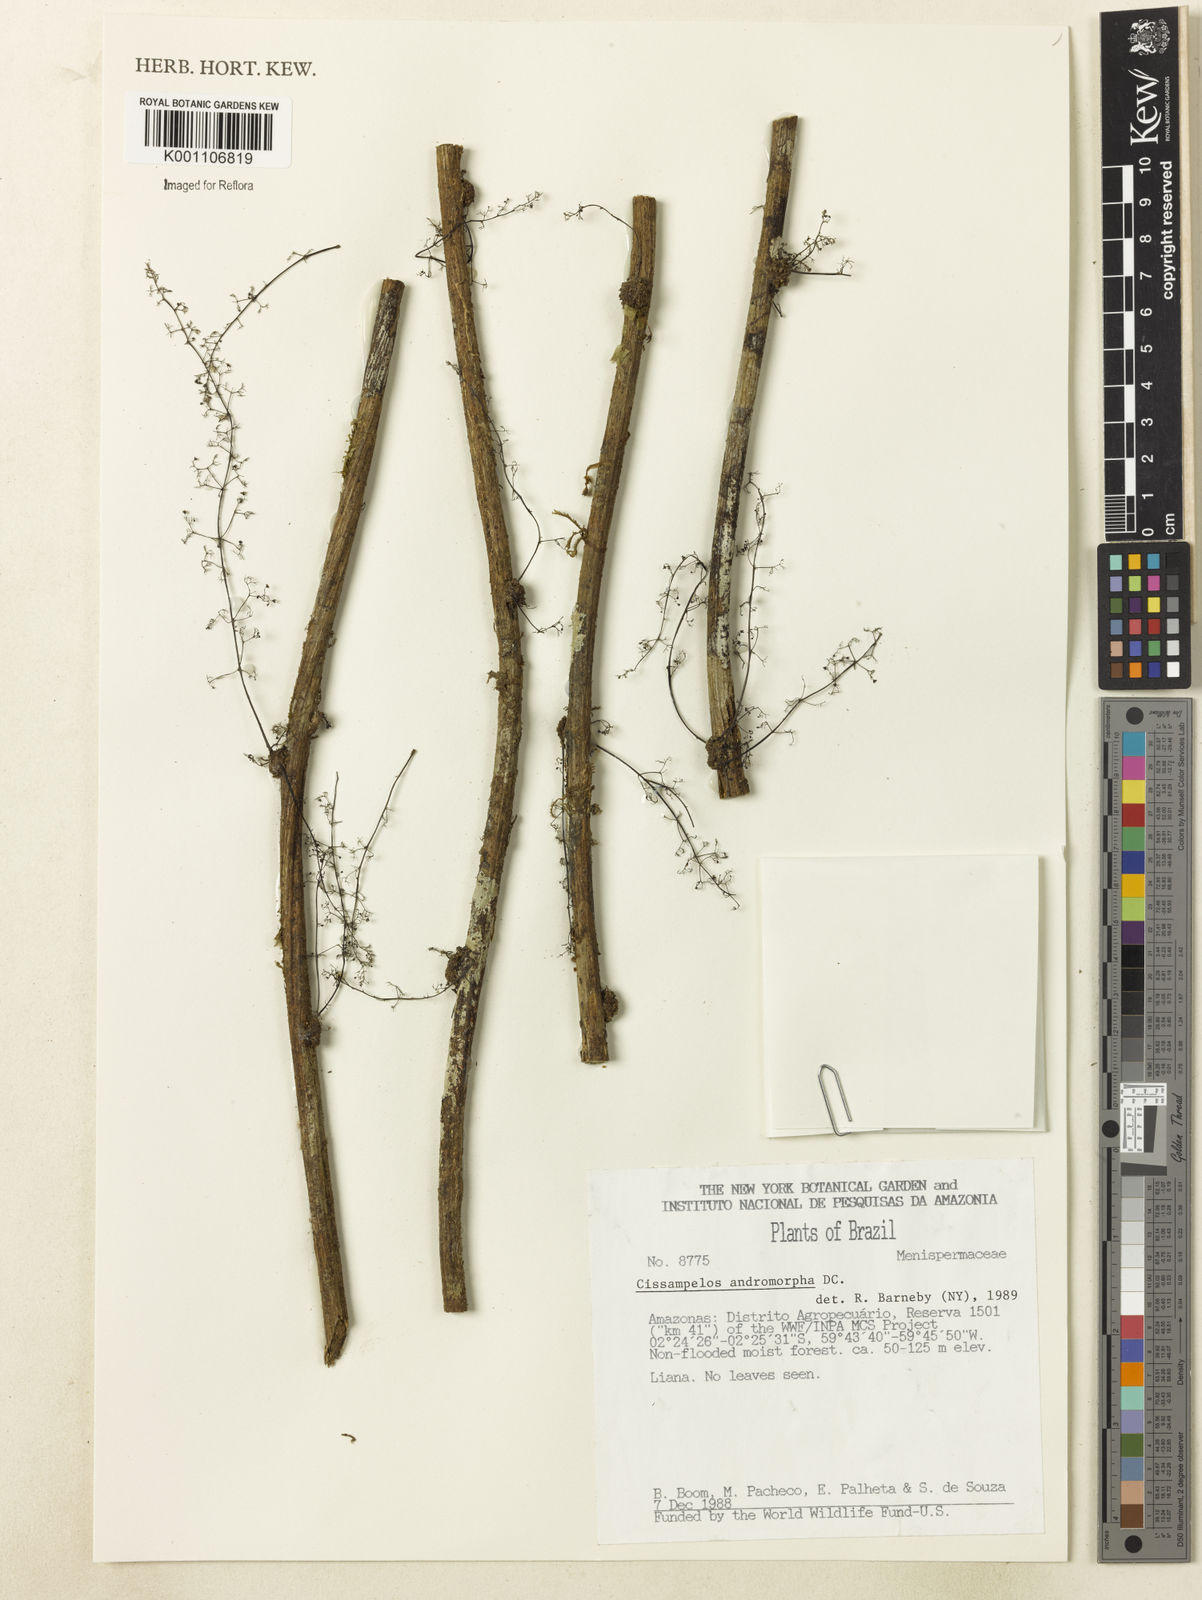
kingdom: Plantae
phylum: Tracheophyta
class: Magnoliopsida
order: Ranunculales
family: Menispermaceae
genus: Cissampelos
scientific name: Cissampelos andromorpha
